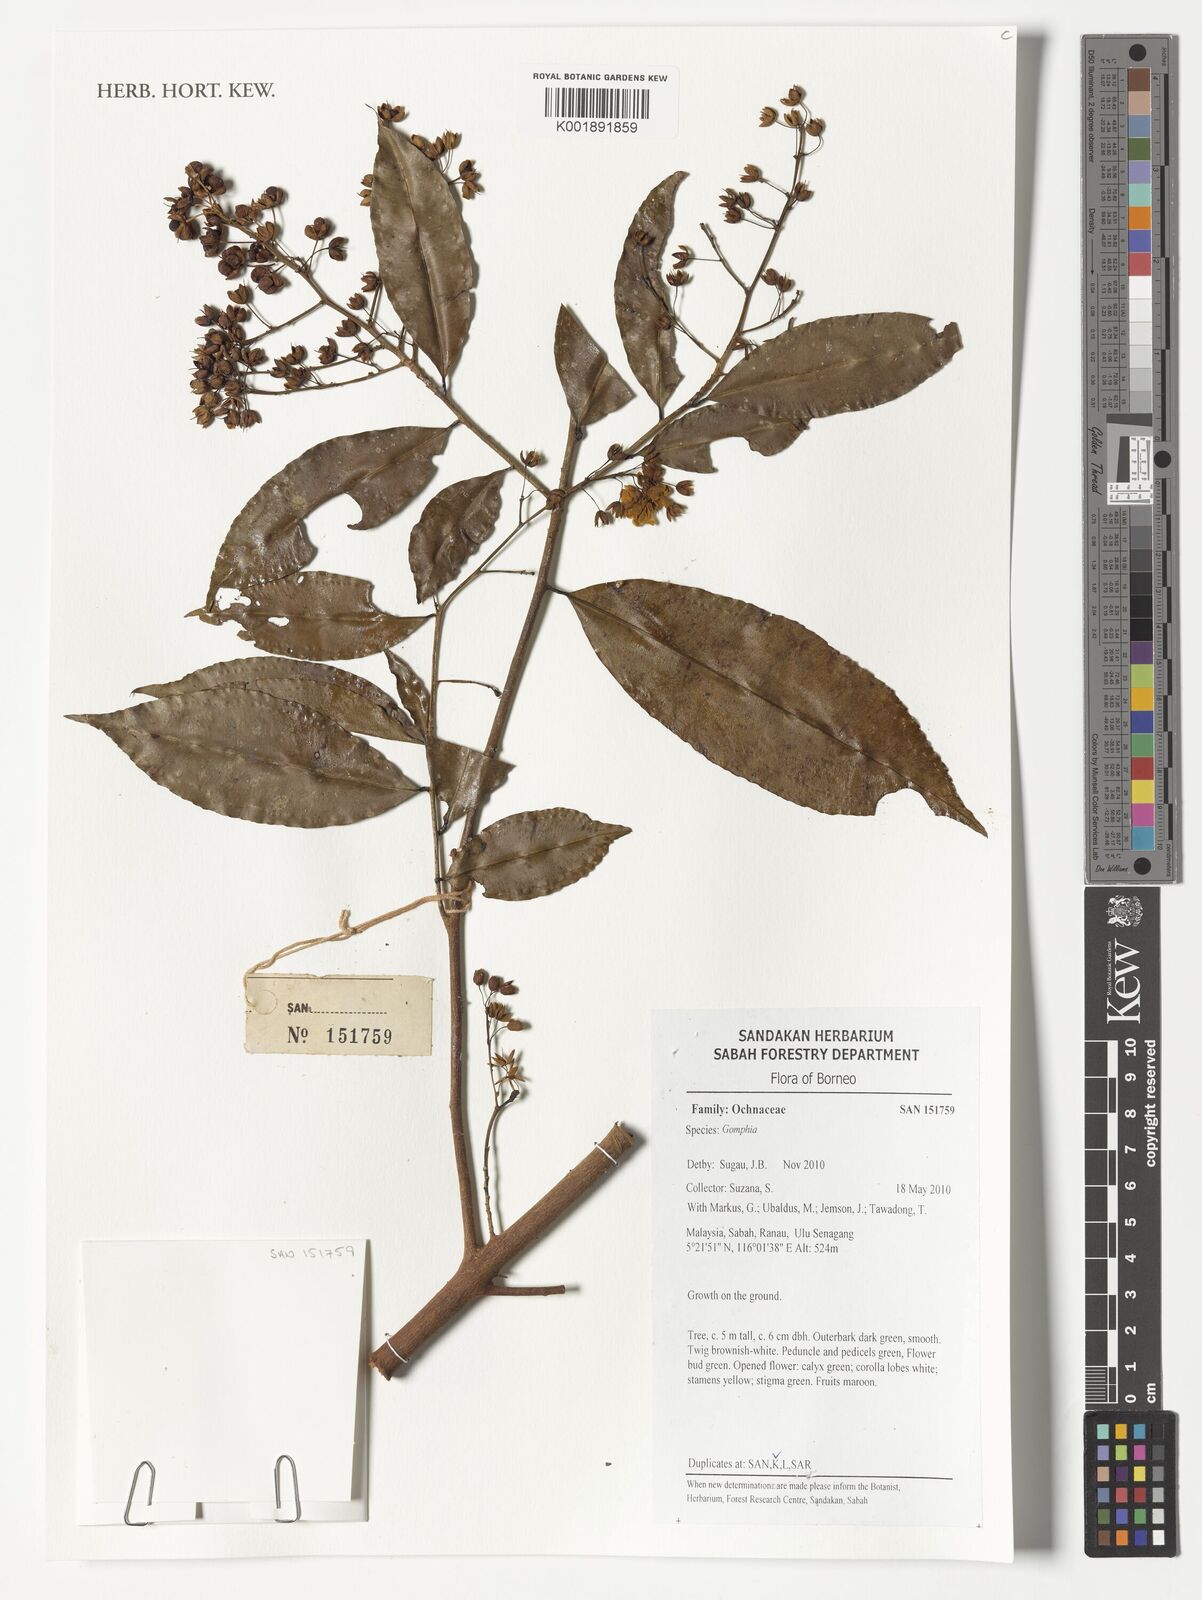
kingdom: Plantae
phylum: Tracheophyta
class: Magnoliopsida
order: Malpighiales
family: Ochnaceae
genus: Gomphia
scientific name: Gomphia
